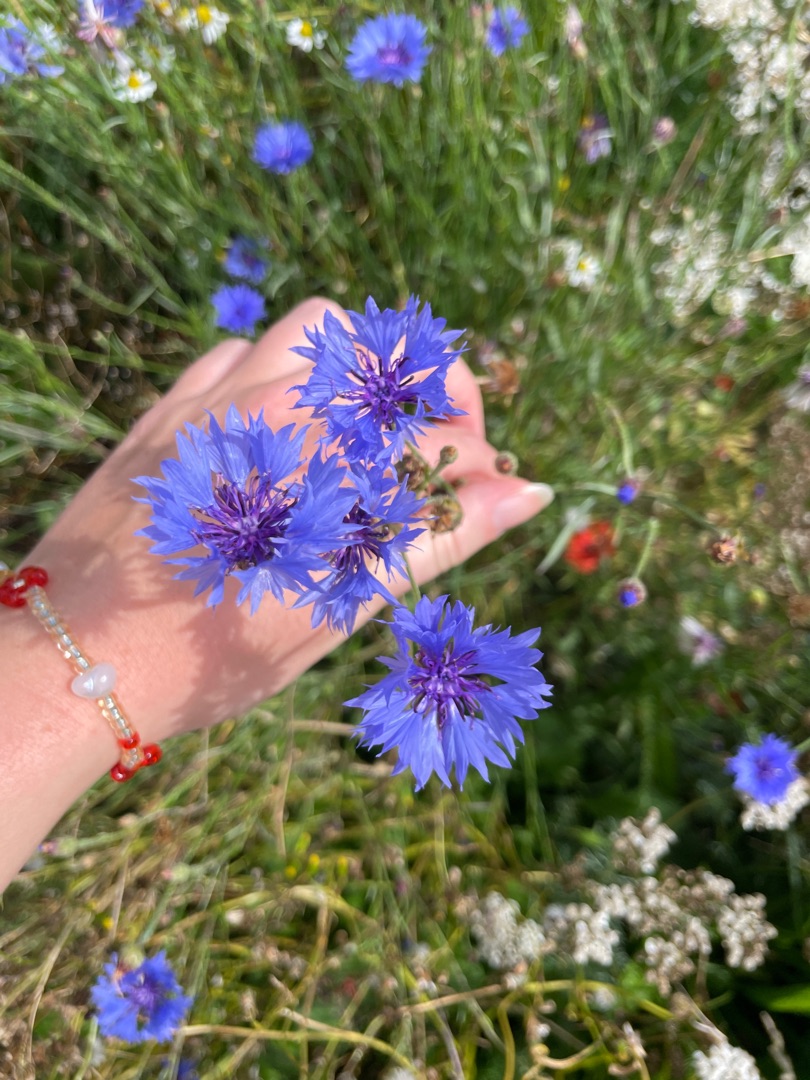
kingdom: Plantae
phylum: Tracheophyta
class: Magnoliopsida
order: Asterales
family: Asteraceae
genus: Centaurea
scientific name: Centaurea cyanus
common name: Kornblomst
